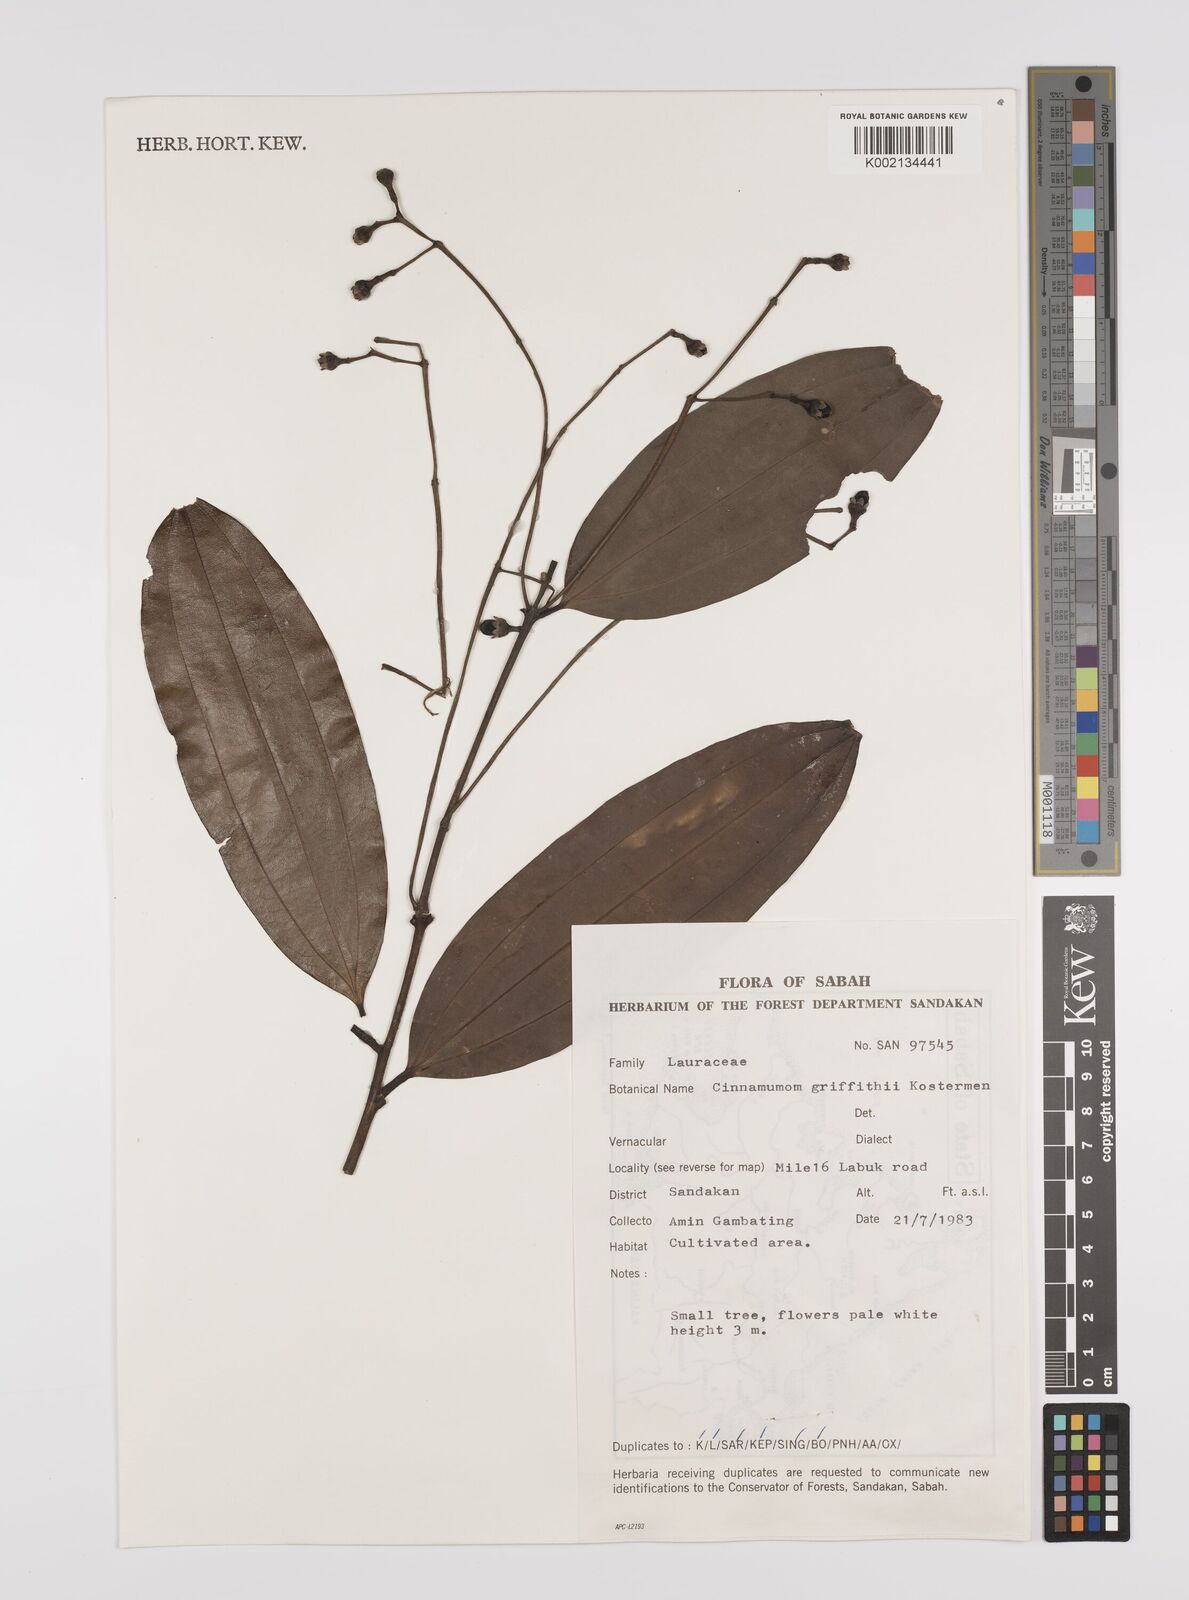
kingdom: Plantae
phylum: Tracheophyta
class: Magnoliopsida
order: Laurales
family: Lauraceae
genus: Cinnamomum
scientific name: Cinnamomum iners
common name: Wild cinnamon
